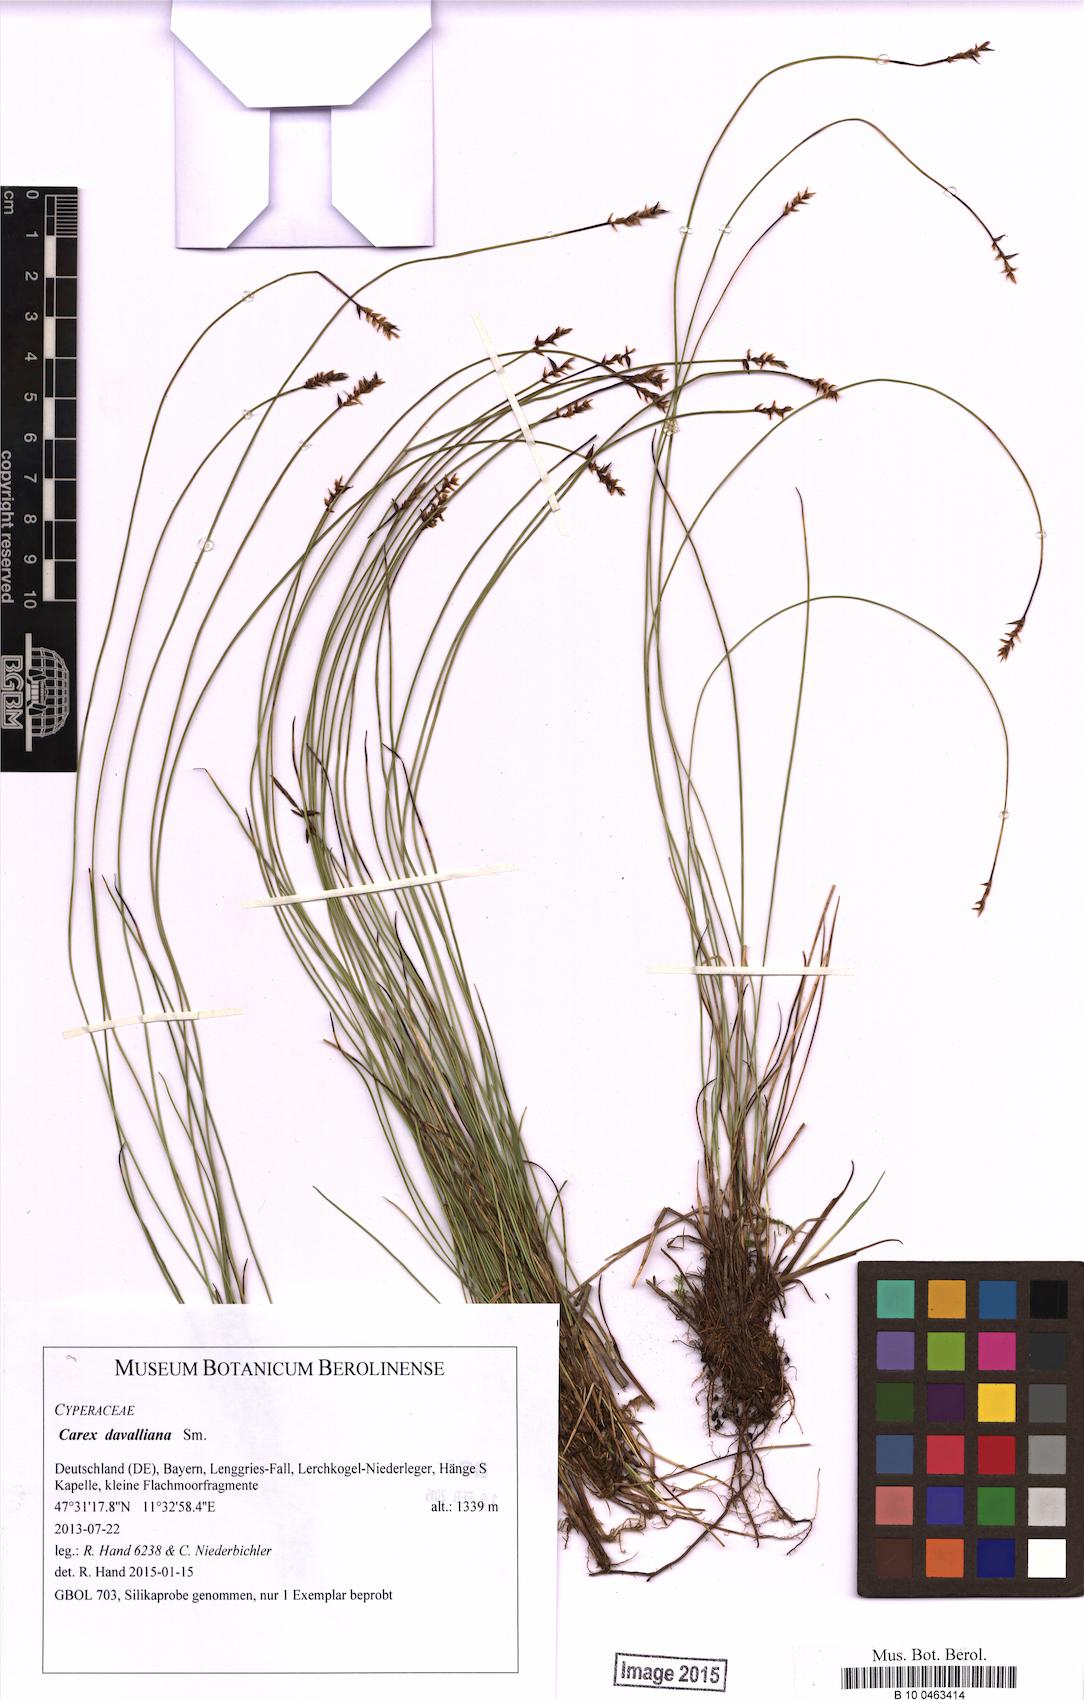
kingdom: Plantae
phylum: Tracheophyta
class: Liliopsida
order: Poales
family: Cyperaceae
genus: Carex
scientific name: Carex davalliana
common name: Davall's sedge
